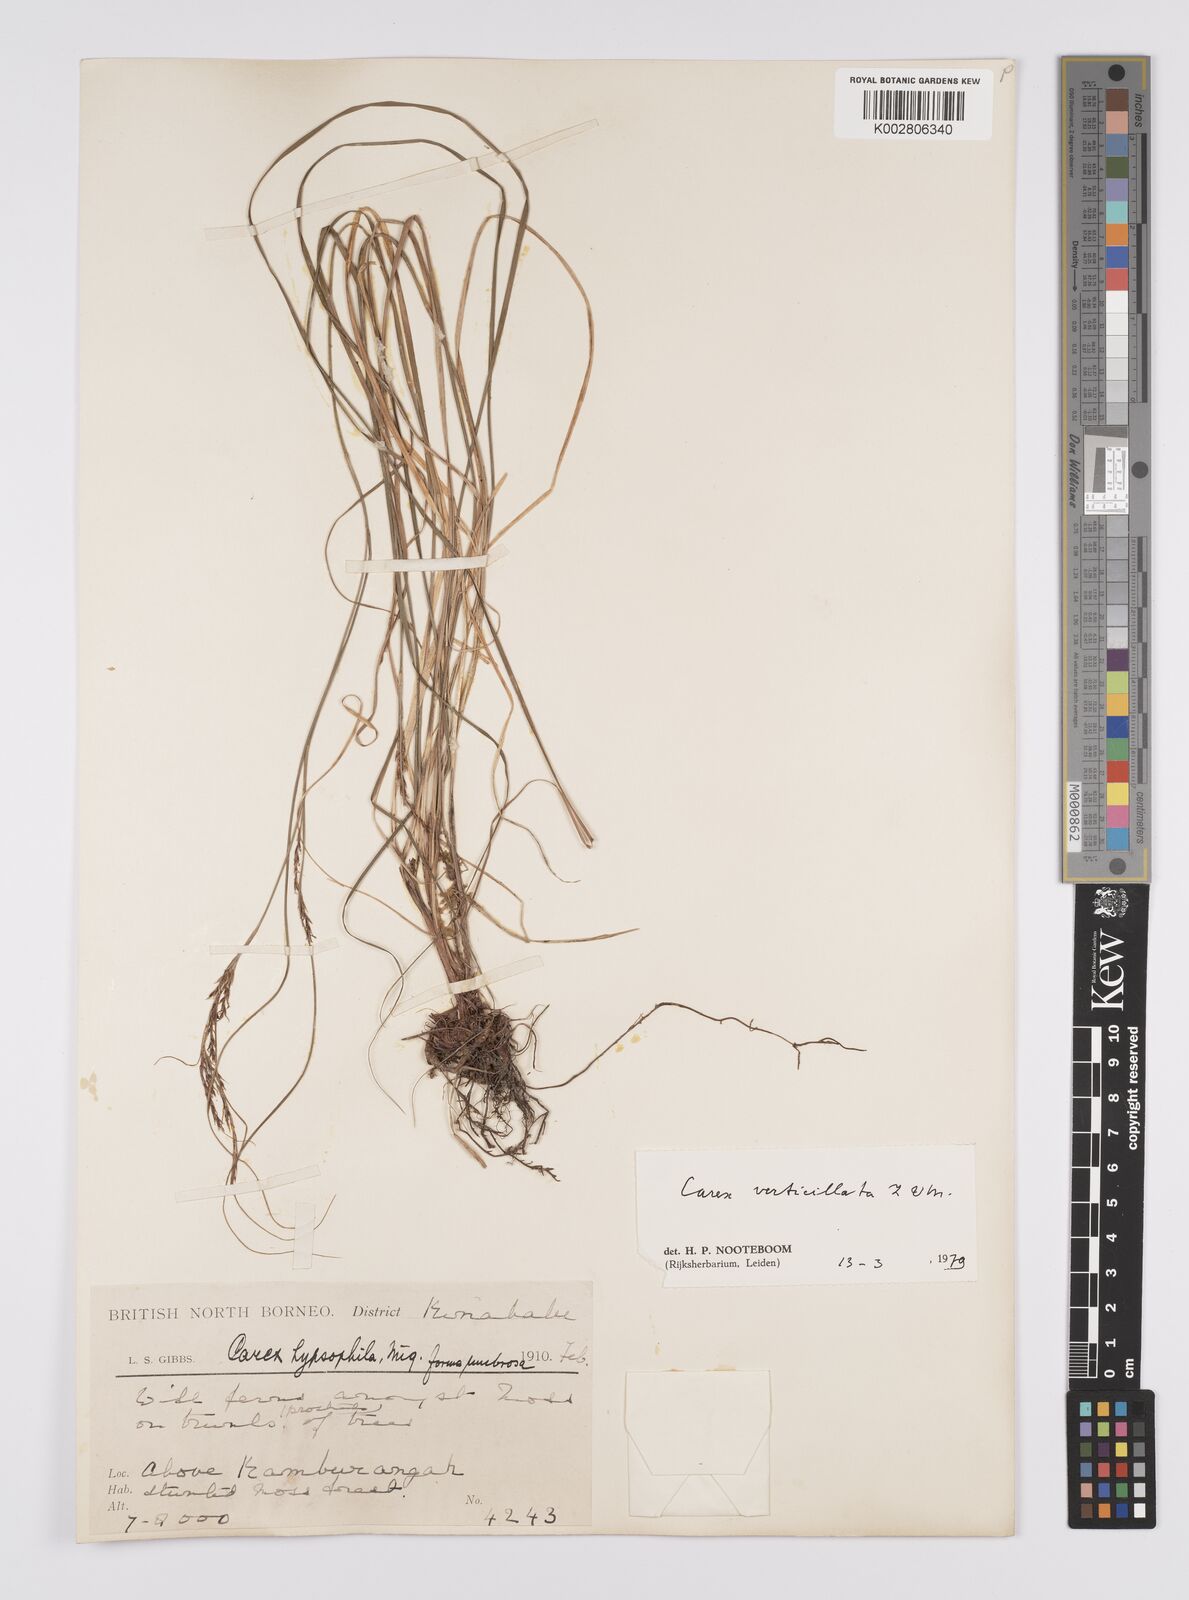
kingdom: Plantae
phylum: Tracheophyta
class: Liliopsida
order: Poales
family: Cyperaceae
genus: Carex
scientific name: Carex verticillata
